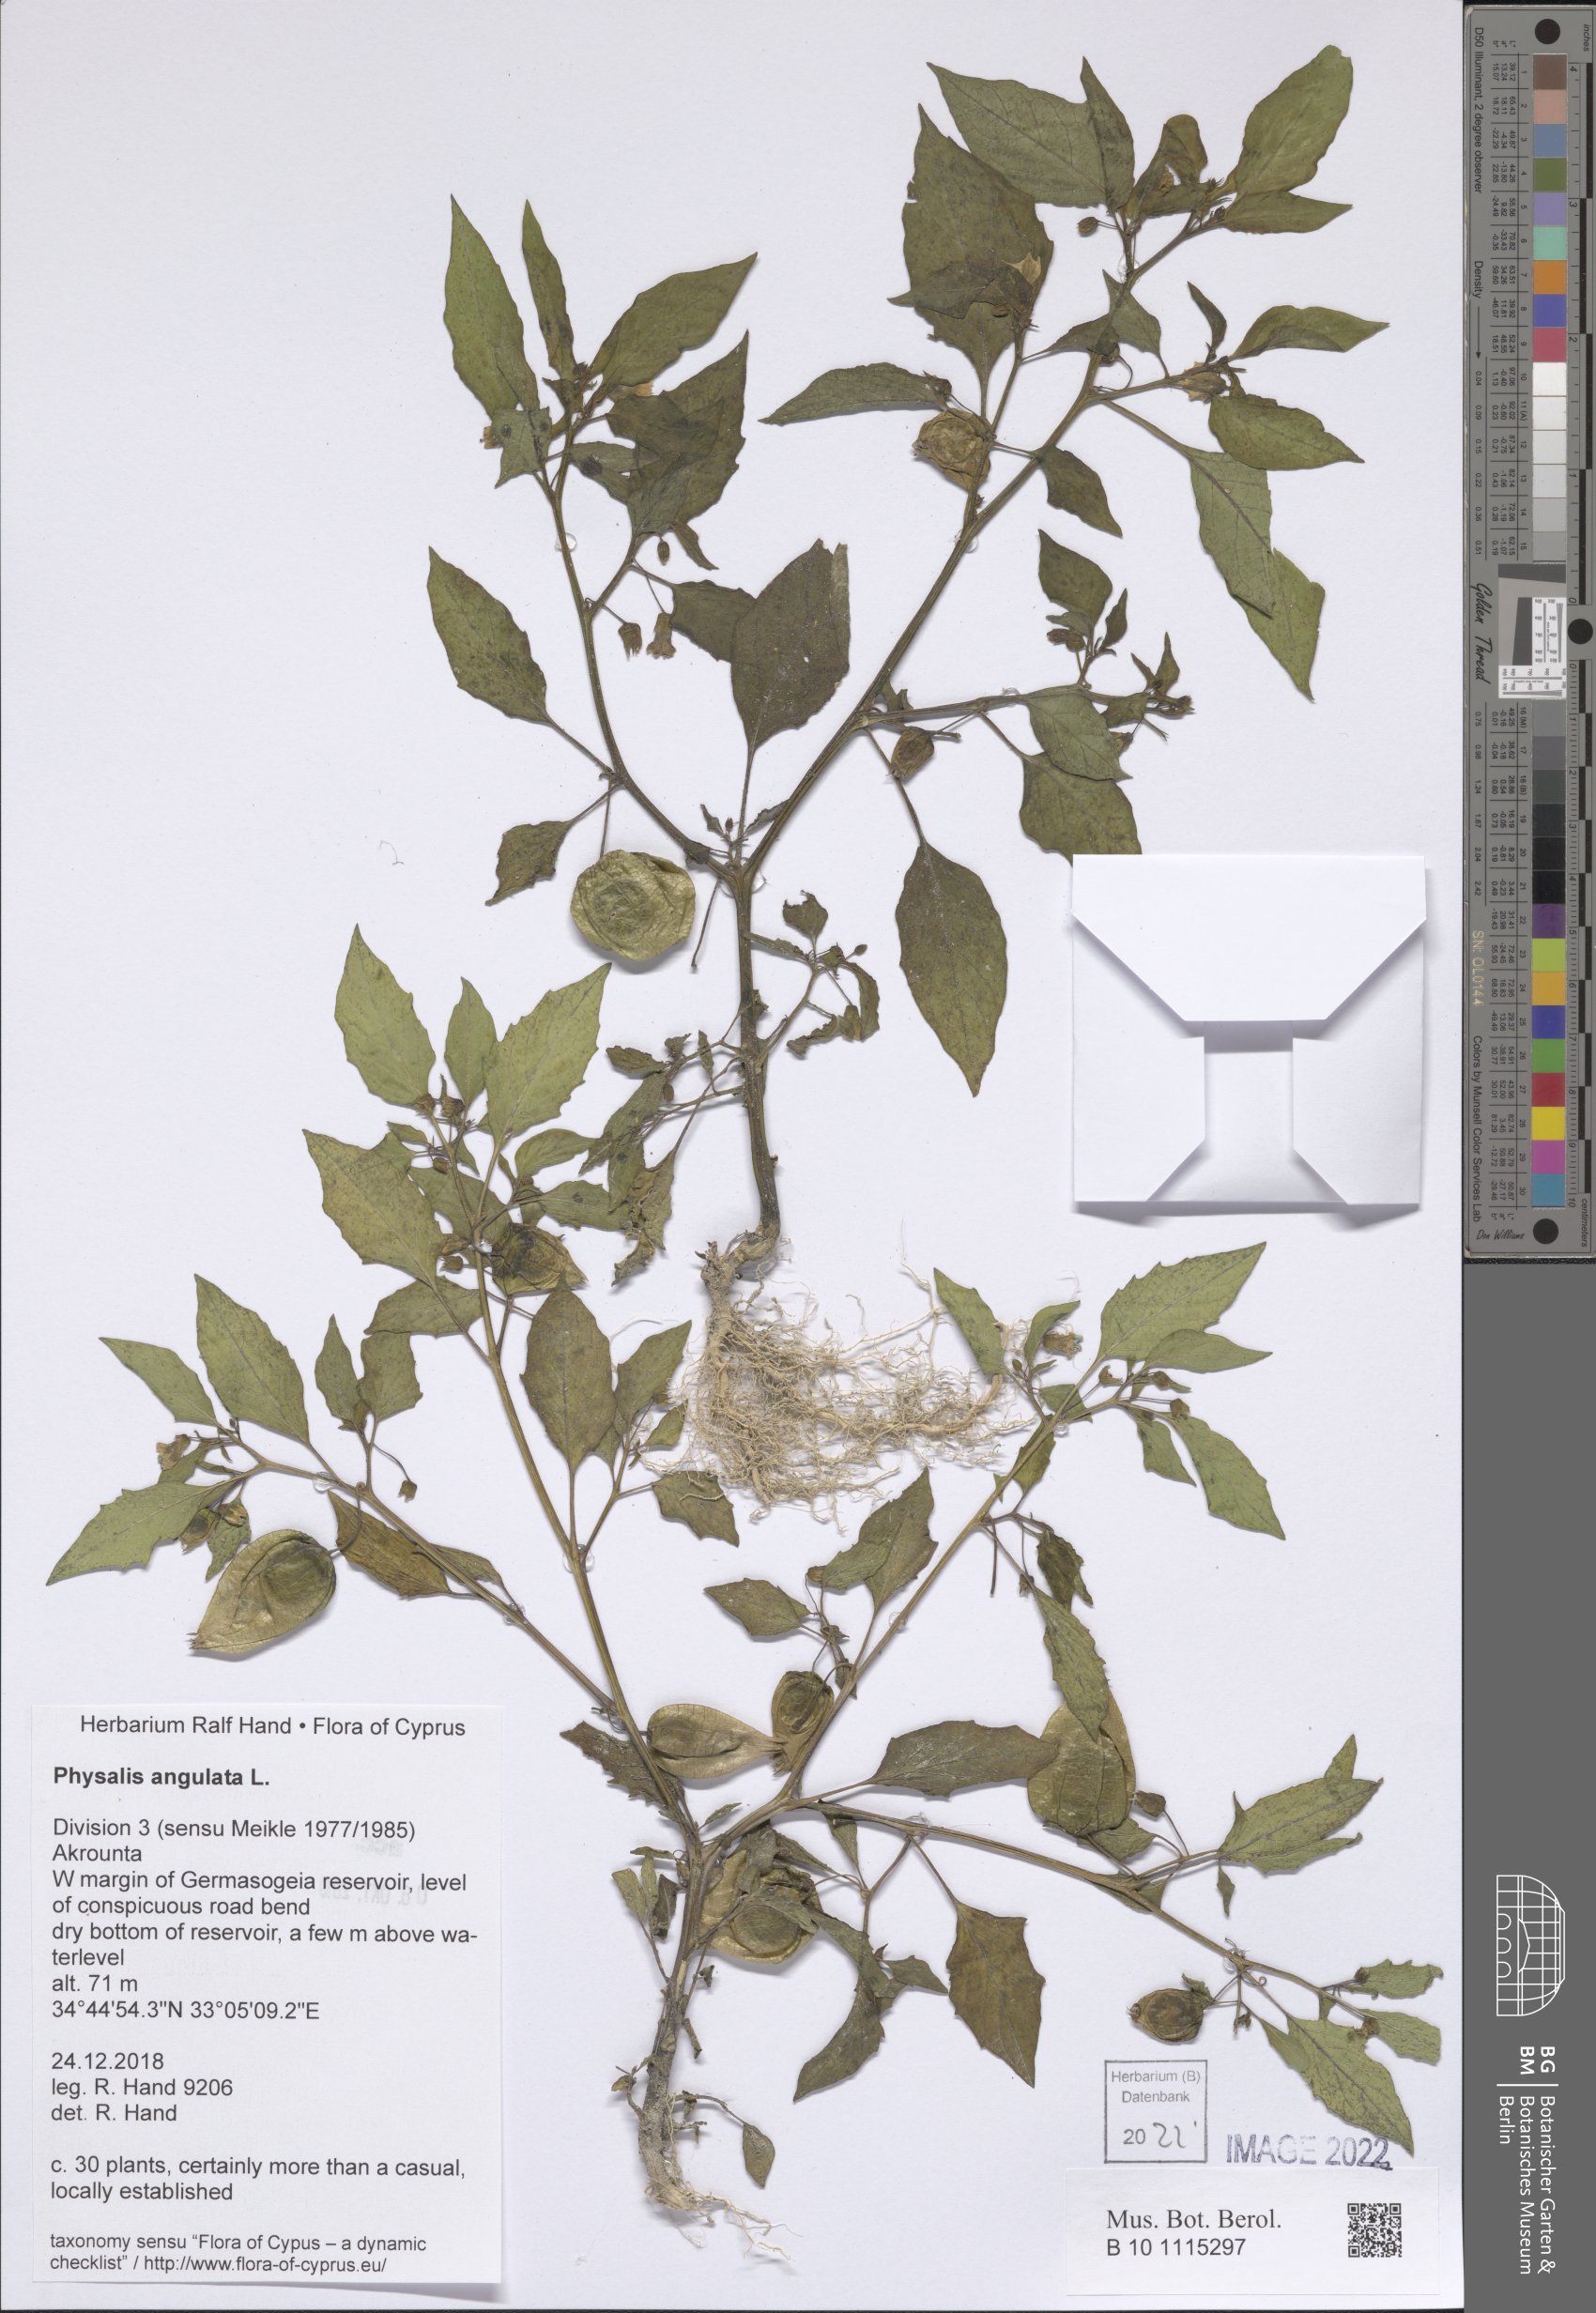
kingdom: Plantae
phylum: Tracheophyta
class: Magnoliopsida
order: Solanales
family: Solanaceae
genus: Physalis
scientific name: Physalis angulata
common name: Angular winter-cherry
